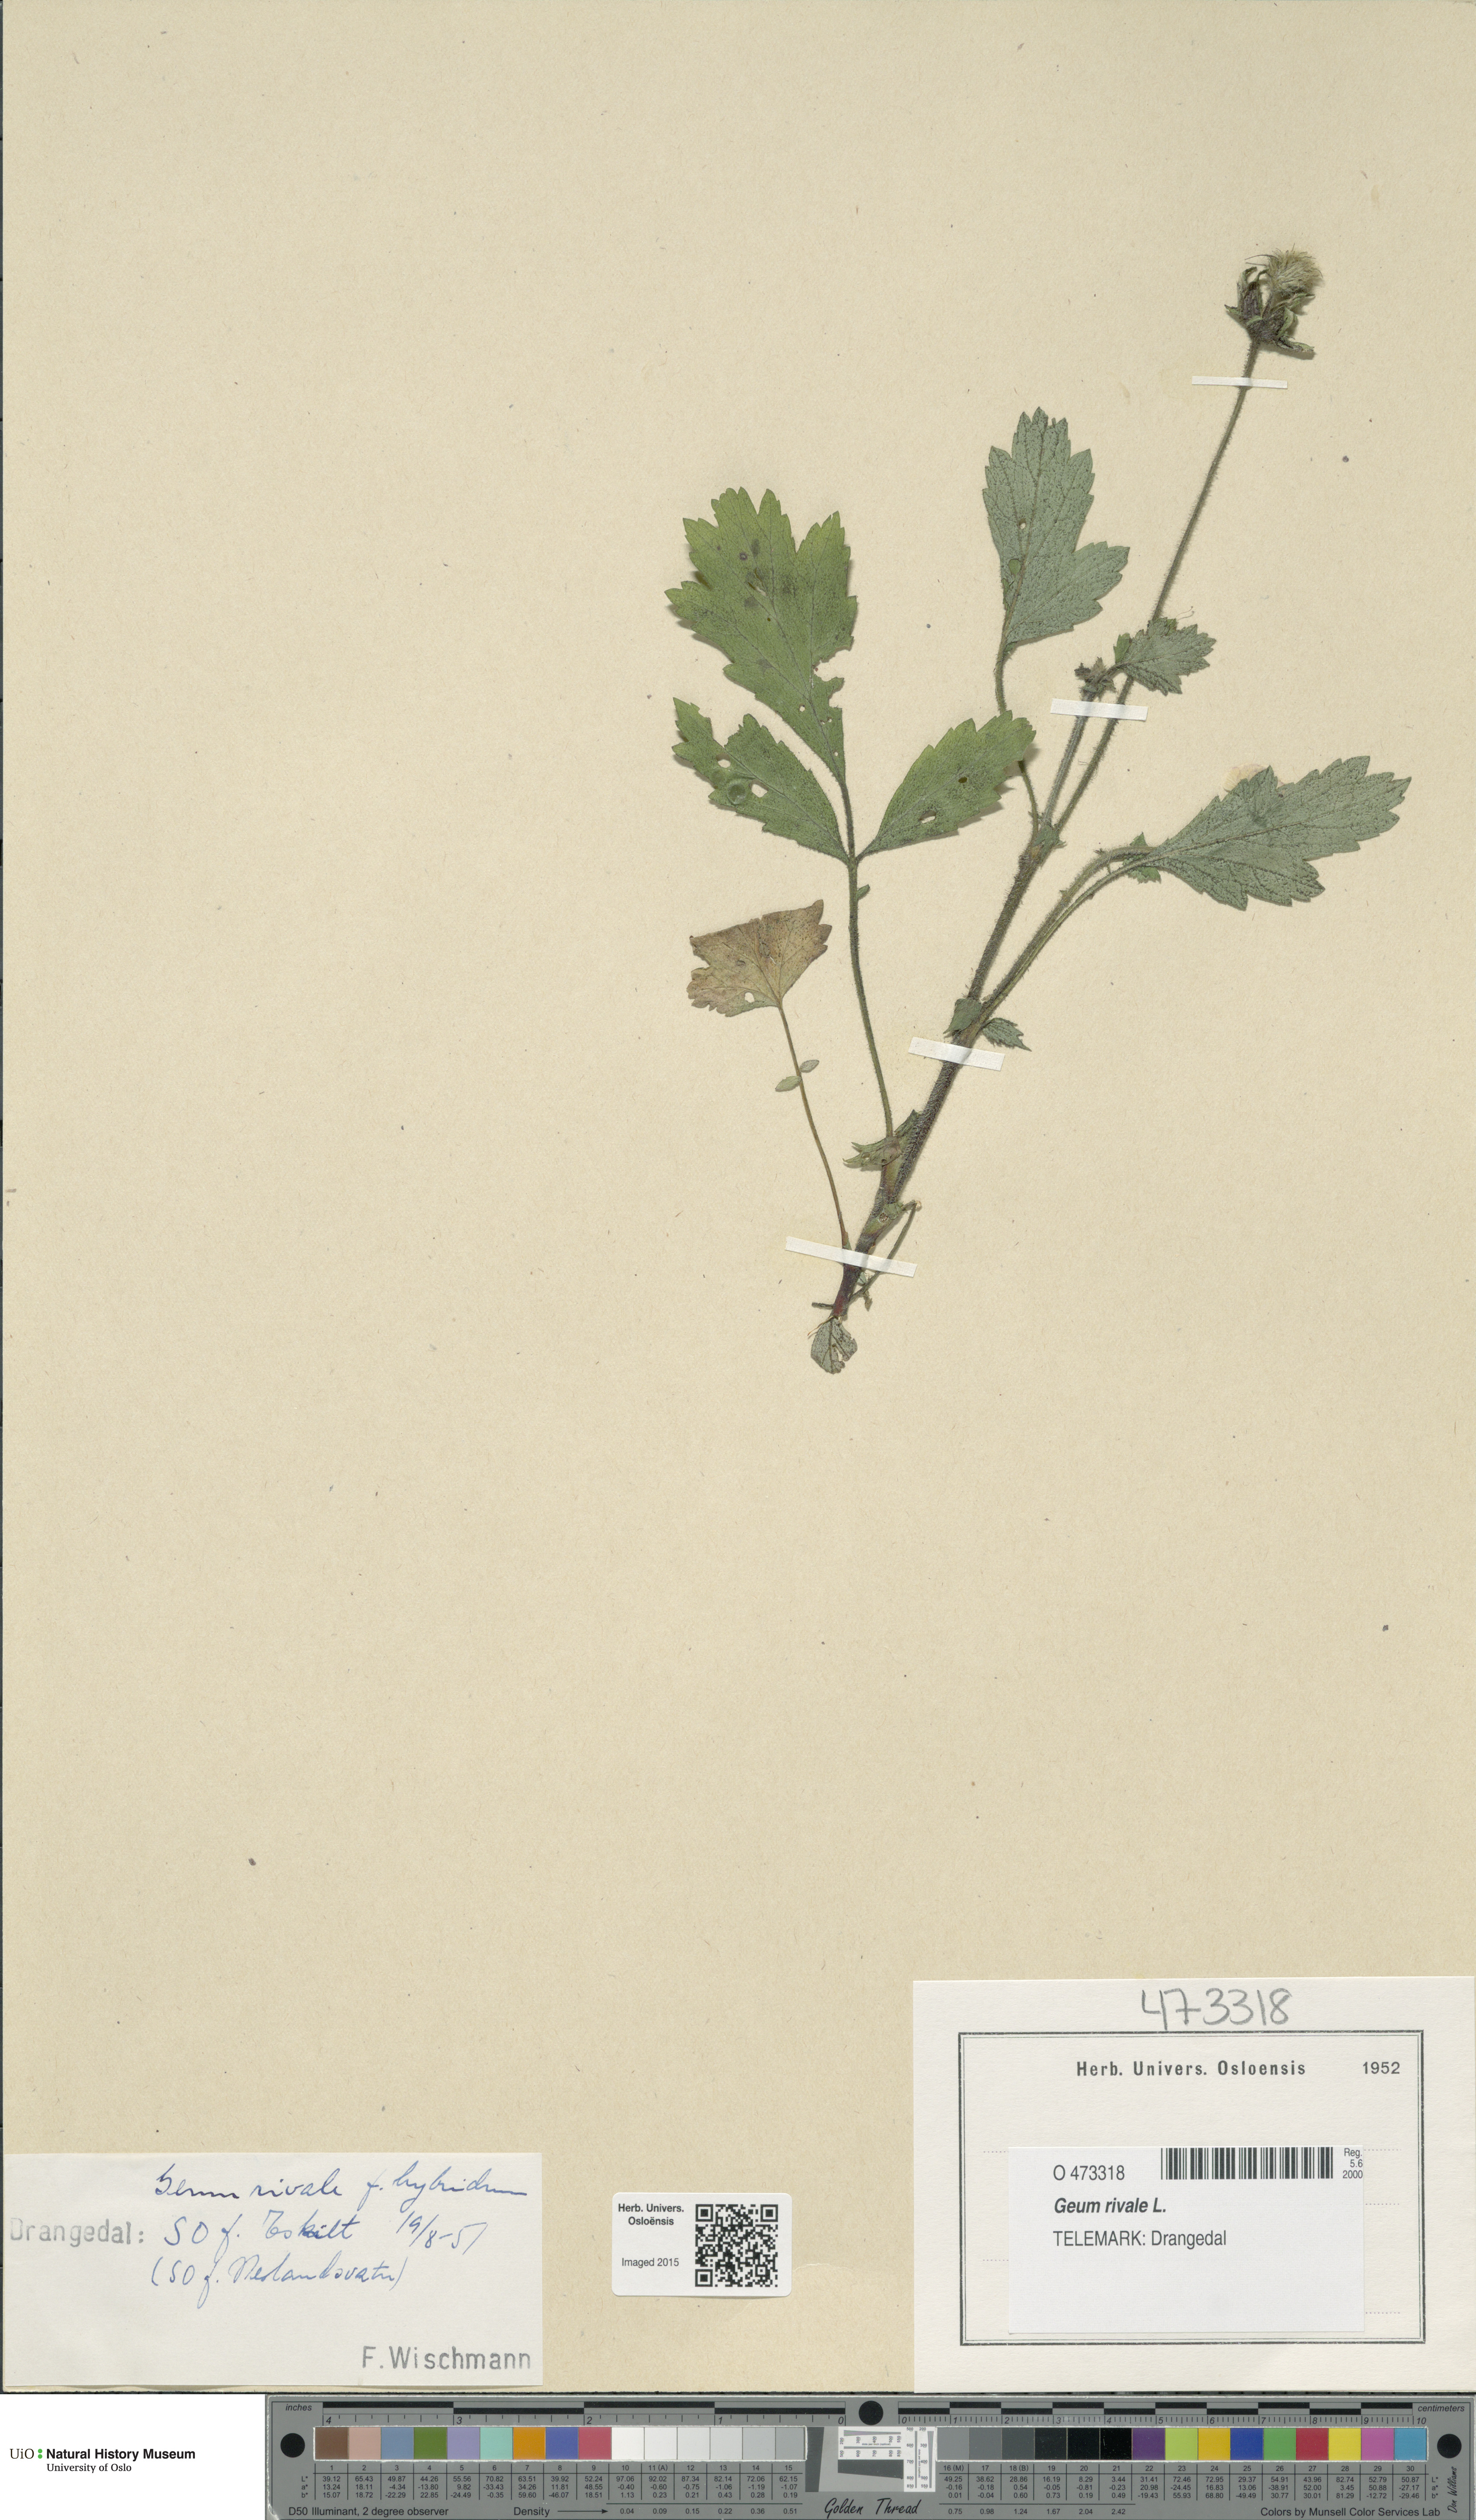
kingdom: Plantae
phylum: Tracheophyta
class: Magnoliopsida
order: Rosales
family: Rosaceae
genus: Geum
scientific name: Geum rivale
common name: Water avens
